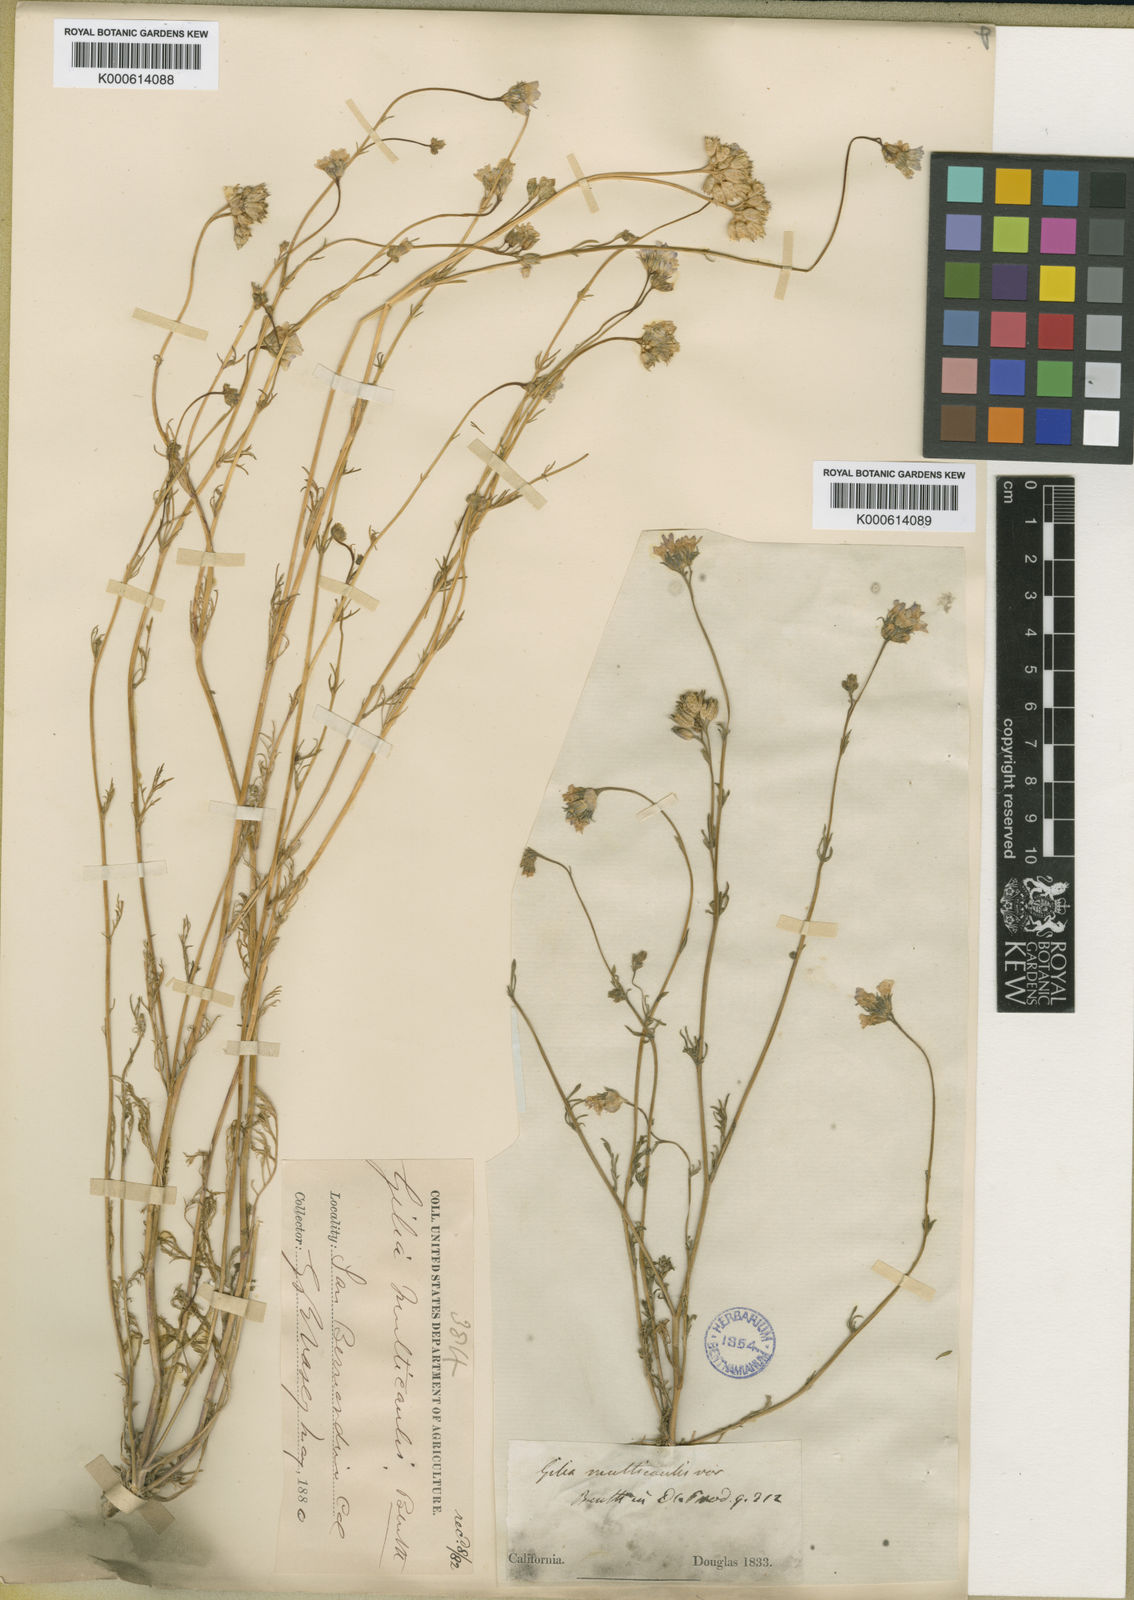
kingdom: Plantae
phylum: Tracheophyta
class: Magnoliopsida
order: Ericales
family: Polemoniaceae
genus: Gilia
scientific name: Gilia achilleifolia
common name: California gily-flower
